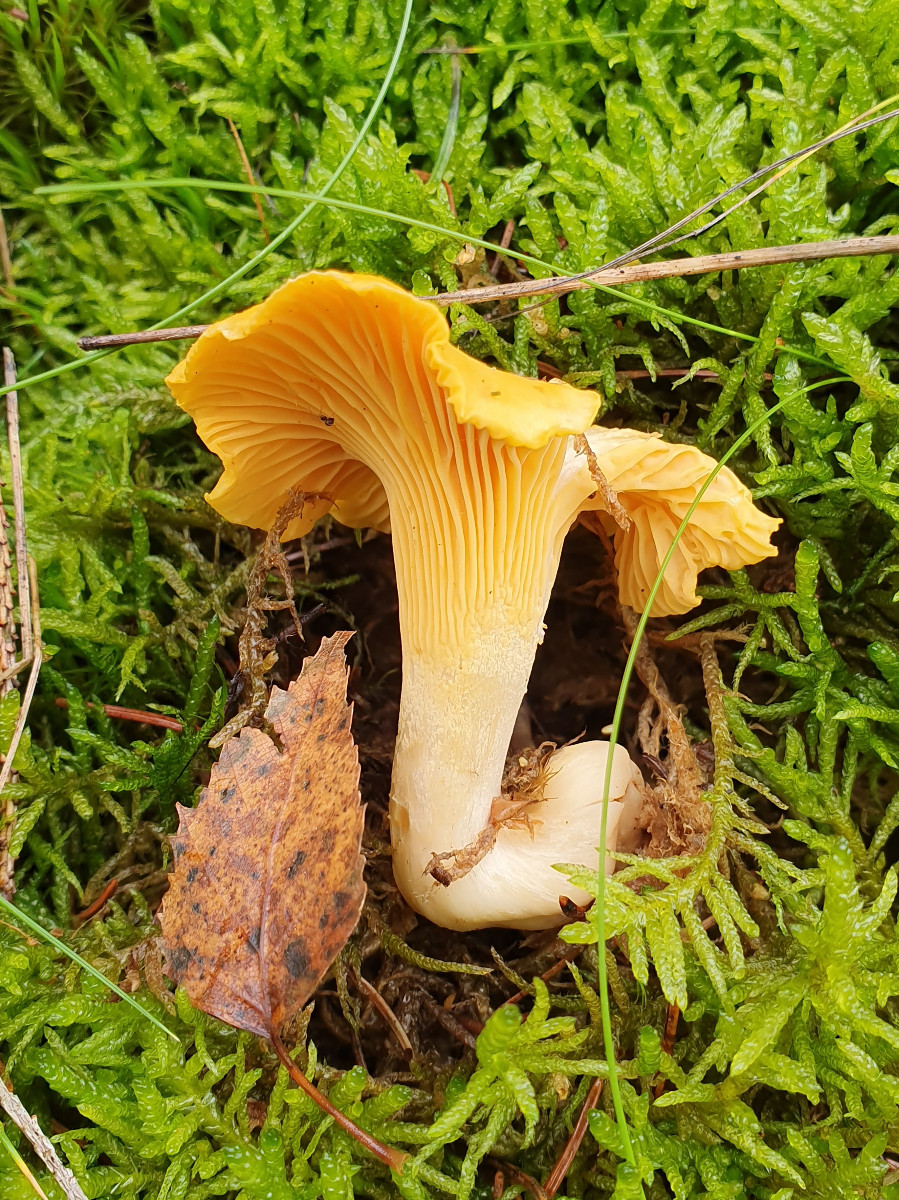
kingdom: Fungi
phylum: Basidiomycota
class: Agaricomycetes
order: Cantharellales
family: Hydnaceae
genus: Cantharellus
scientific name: Cantharellus cibarius
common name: almindelig kantarel
